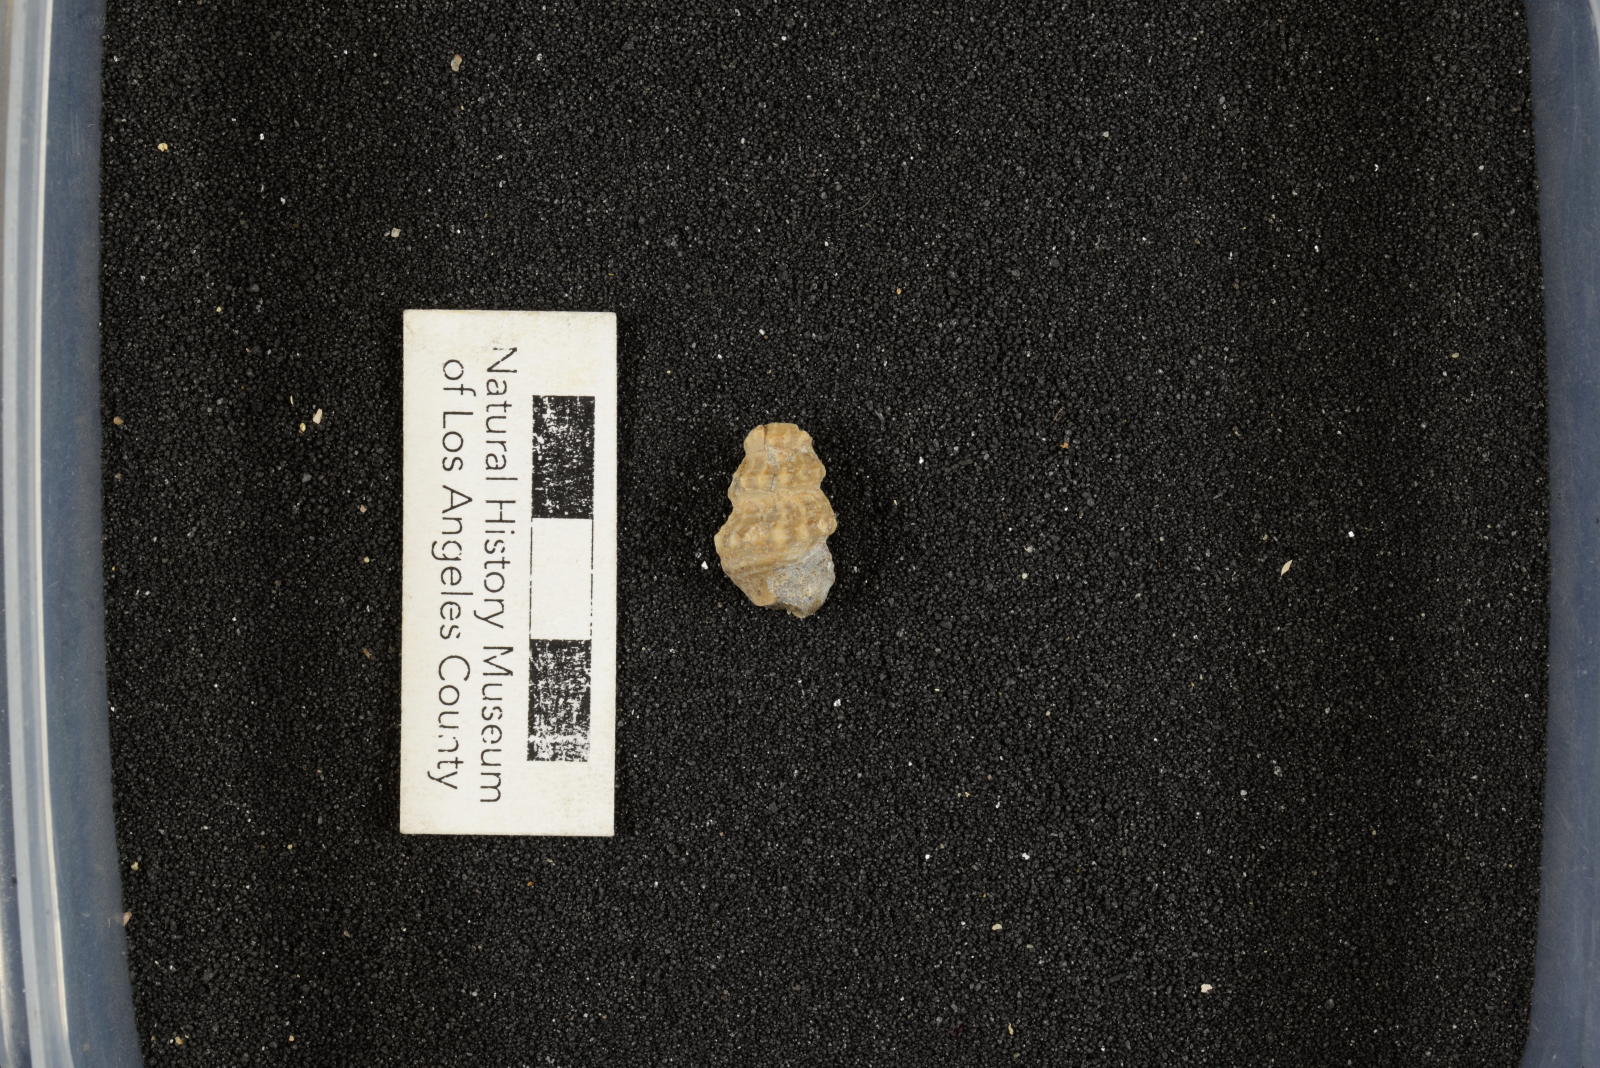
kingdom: Animalia
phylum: Mollusca
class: Gastropoda
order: Littorinimorpha
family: Aporrhaidae
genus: Anchura
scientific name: Anchura phaba
